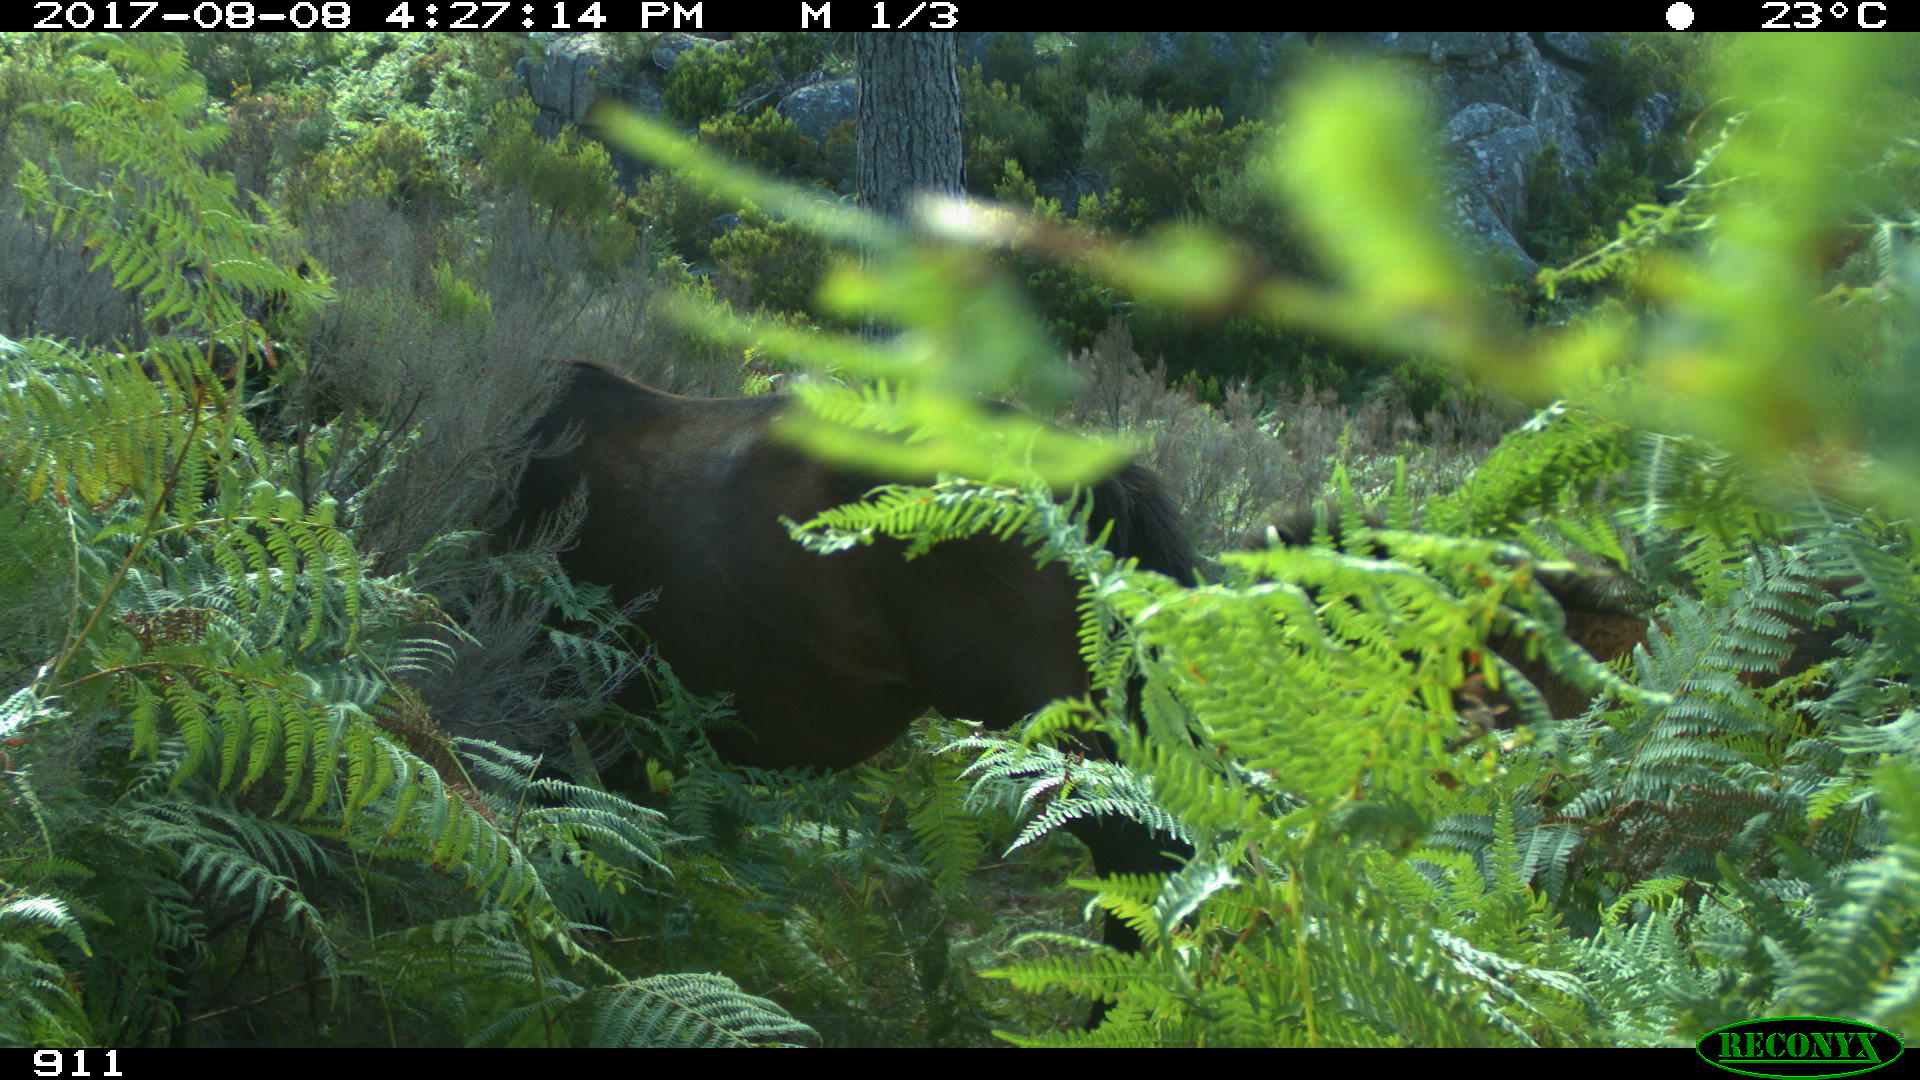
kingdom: Animalia
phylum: Chordata
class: Mammalia
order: Perissodactyla
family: Equidae
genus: Equus
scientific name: Equus caballus
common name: Horse
